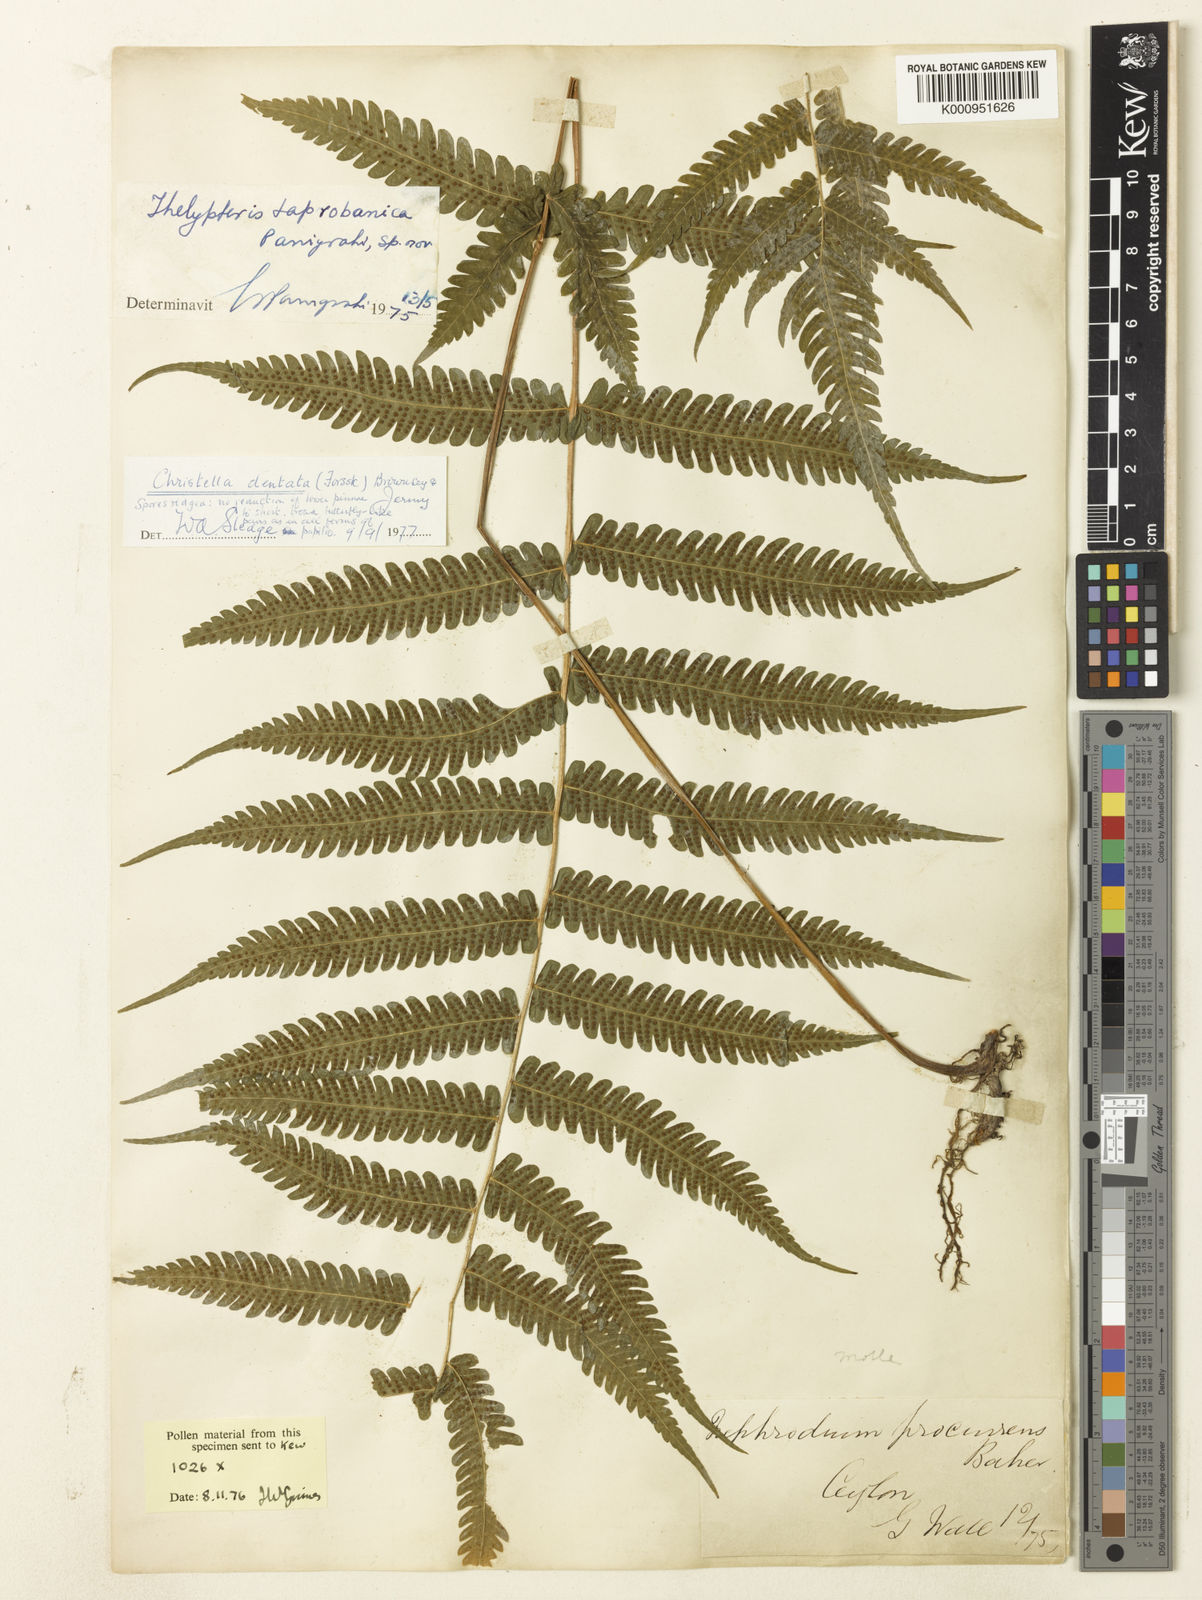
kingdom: Plantae
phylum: Tracheophyta
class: Polypodiopsida
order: Polypodiales
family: Thelypteridaceae
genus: Christella
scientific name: Christella dentata
